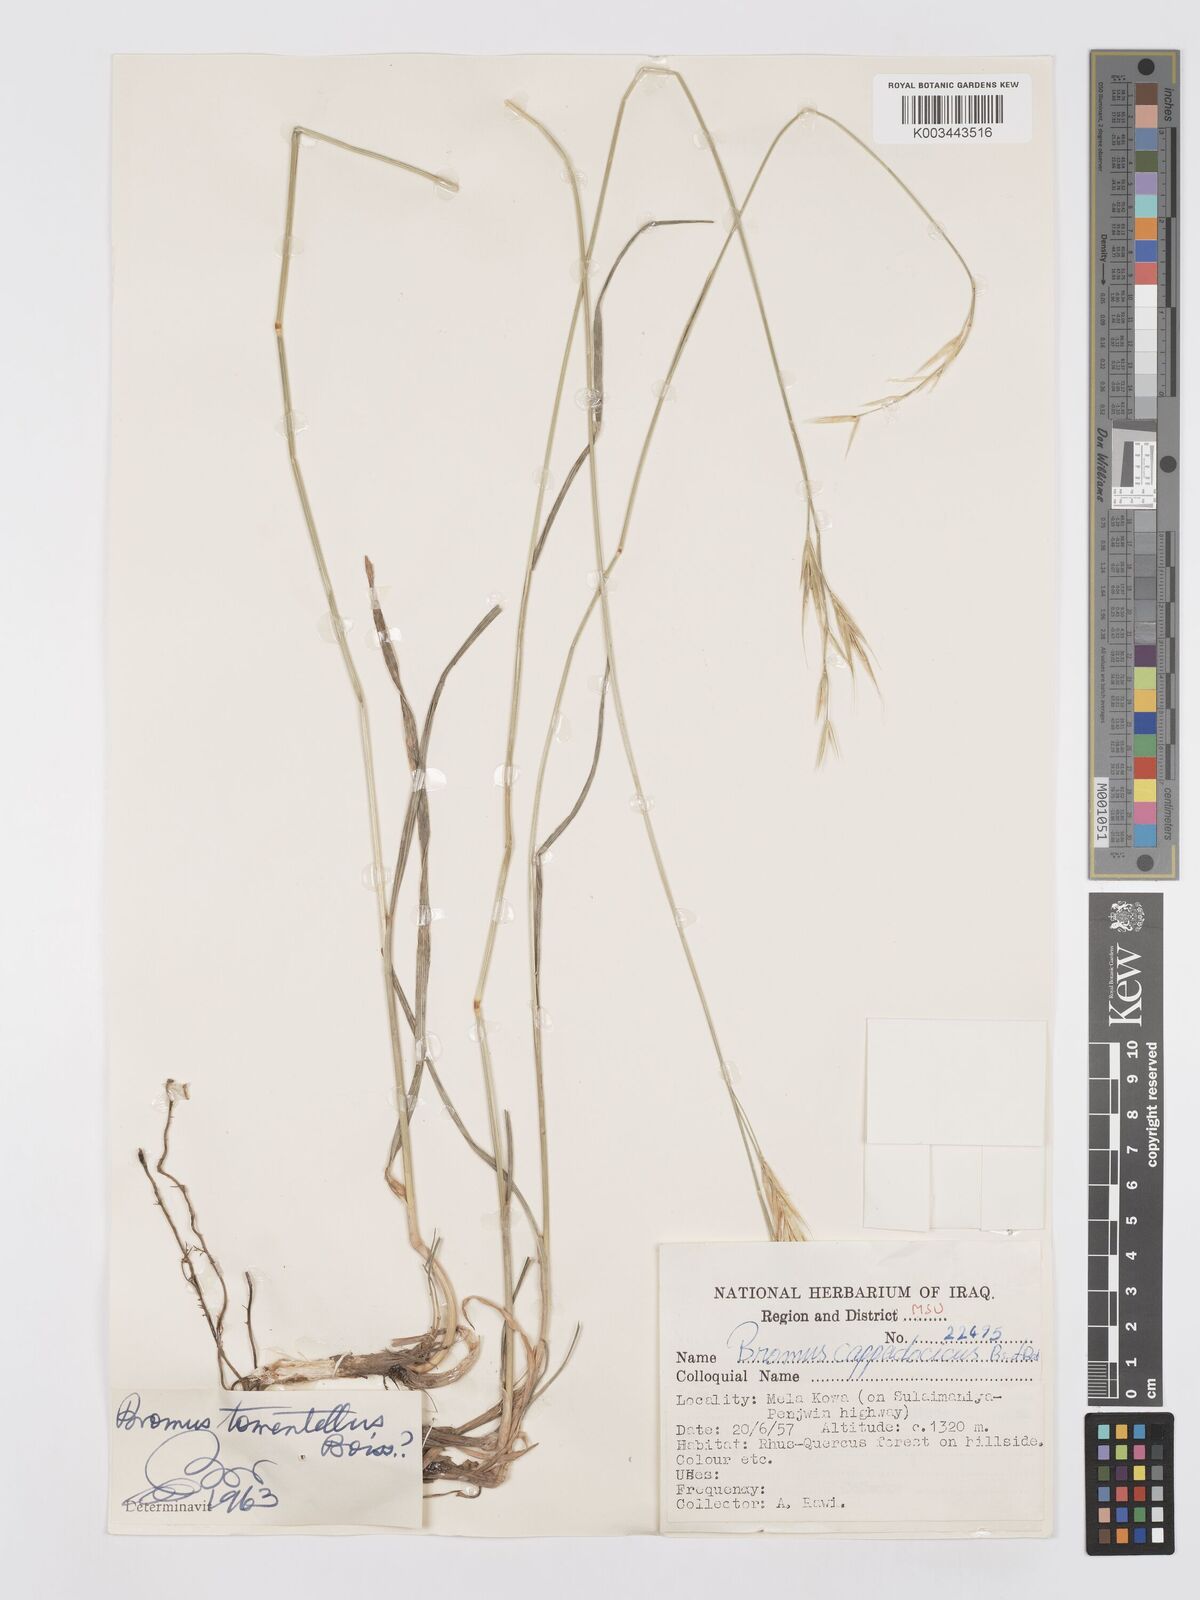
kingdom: Plantae
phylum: Tracheophyta
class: Liliopsida
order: Poales
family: Poaceae
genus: Bromus
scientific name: Bromus tomentellus
